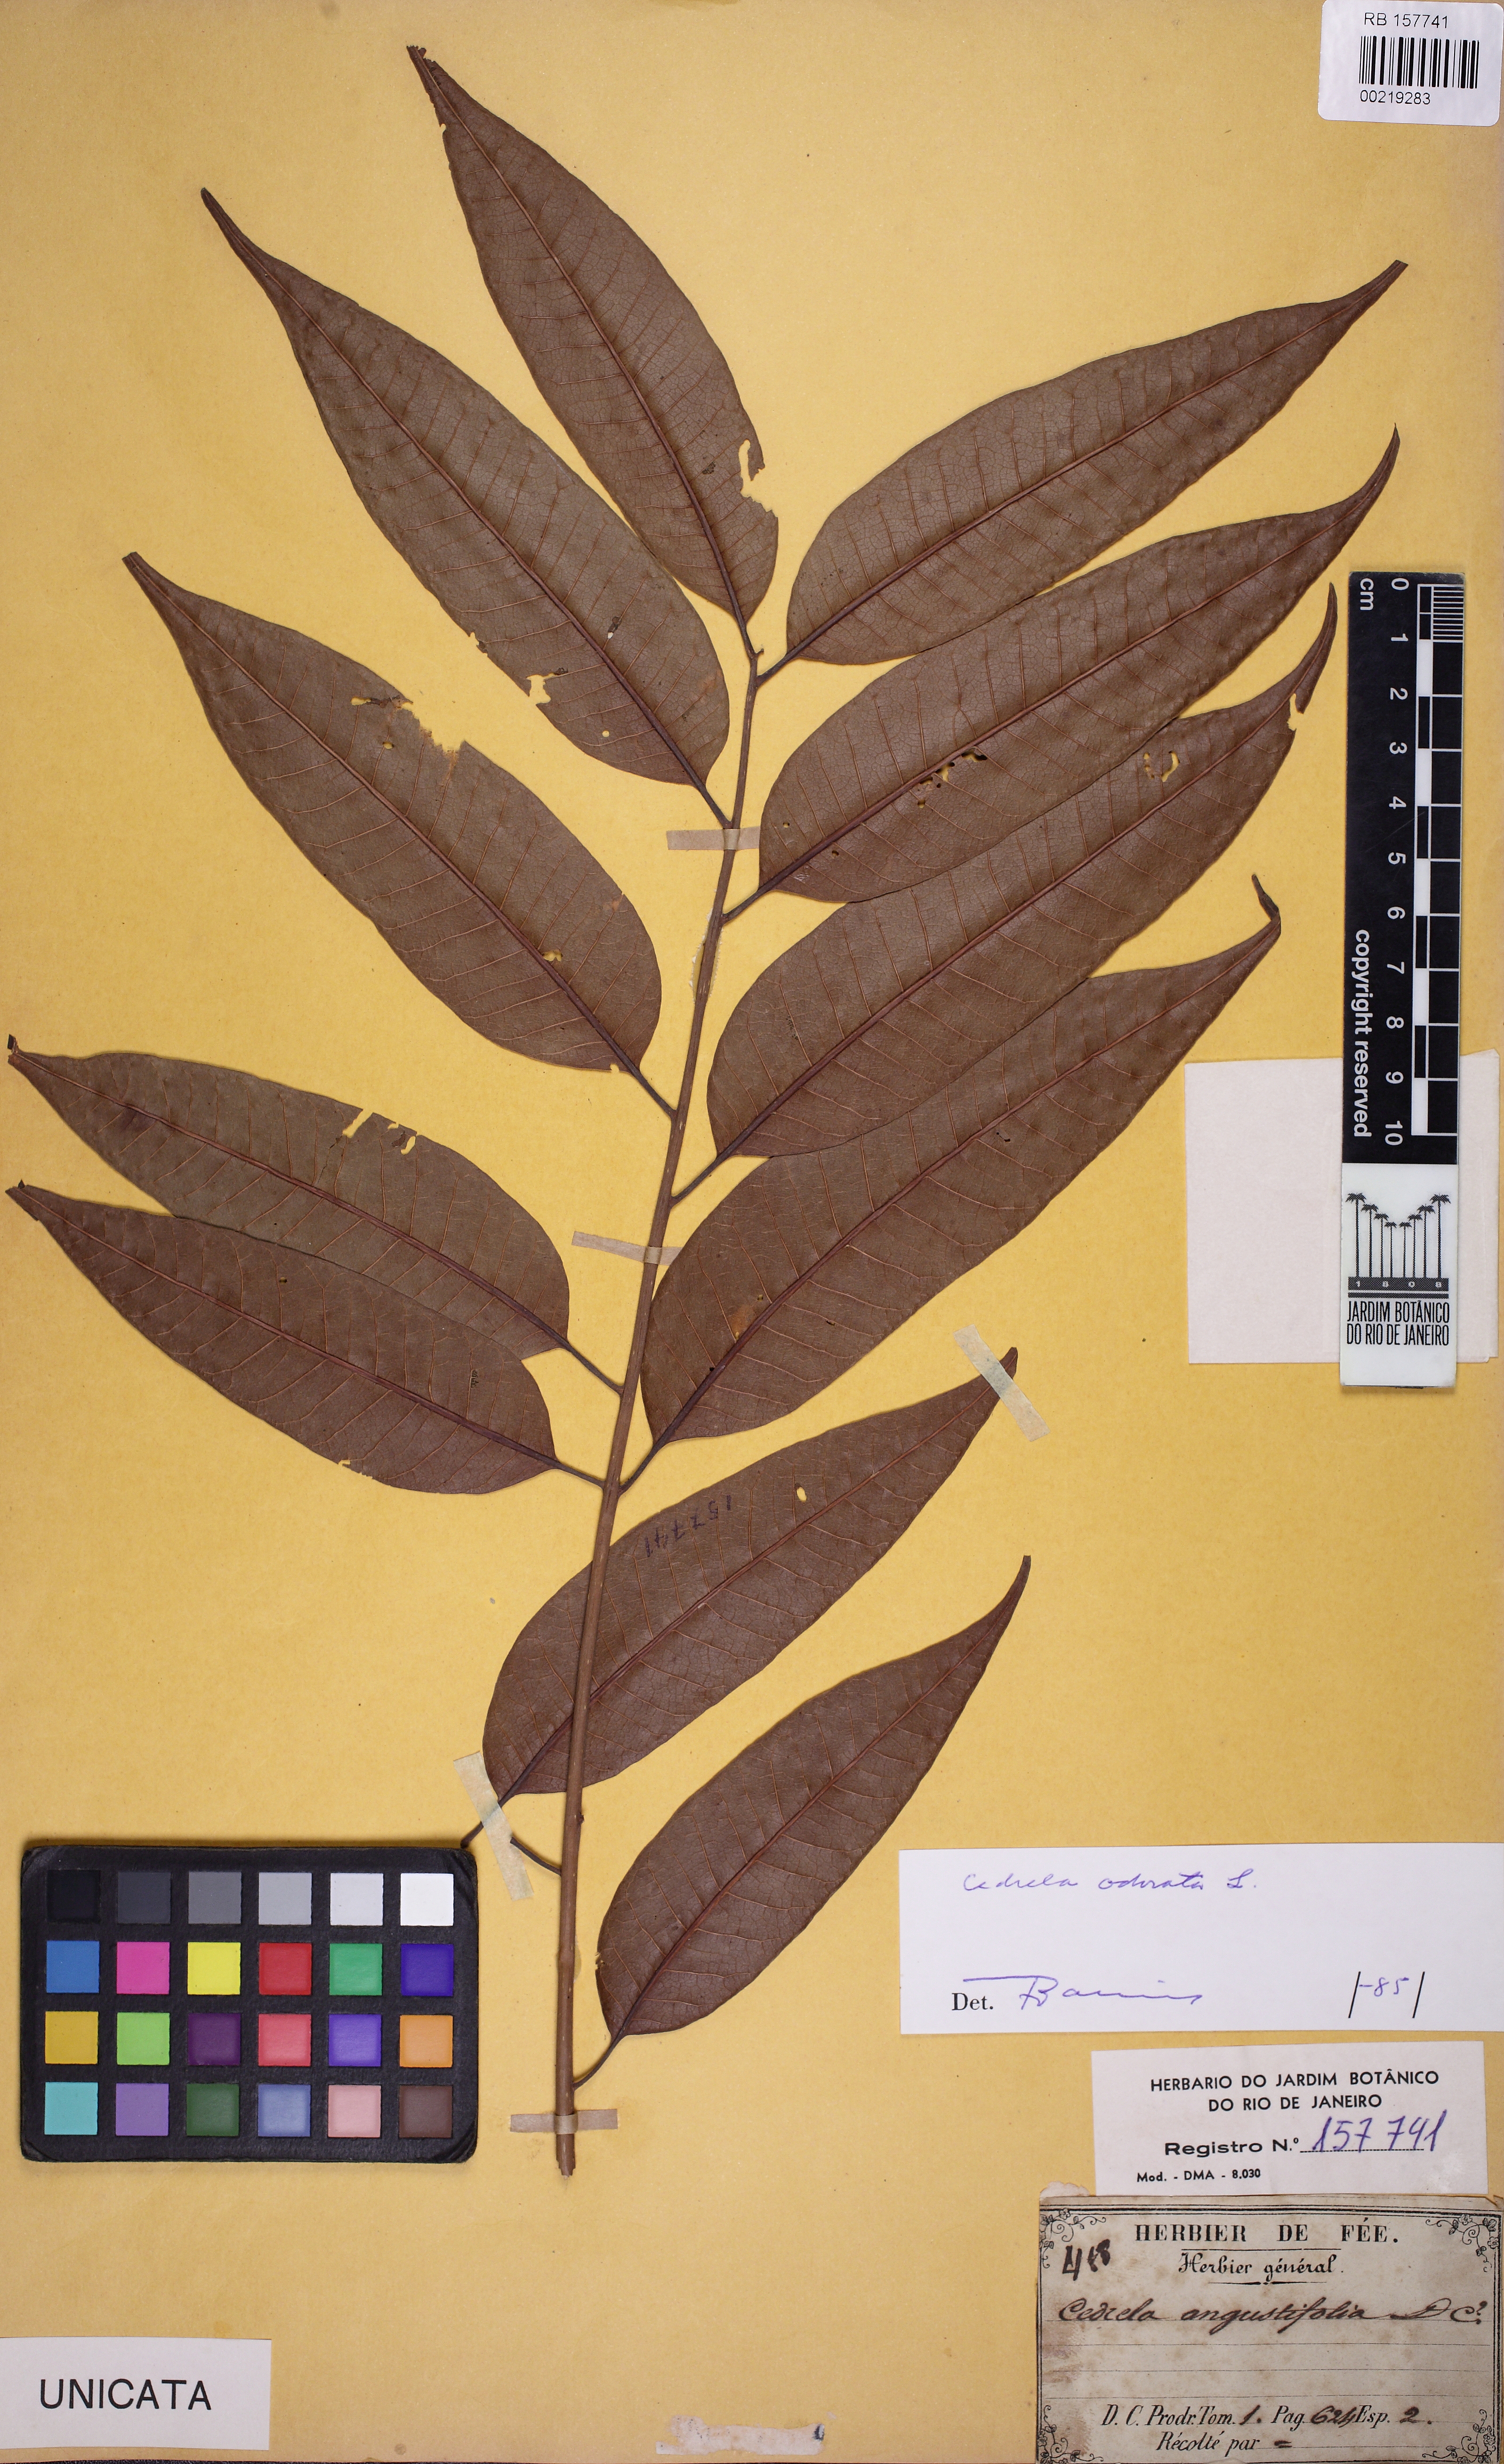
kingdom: Plantae
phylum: Tracheophyta
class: Magnoliopsida
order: Sapindales
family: Meliaceae
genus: Cedrela
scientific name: Cedrela odorata
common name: Red cedar
